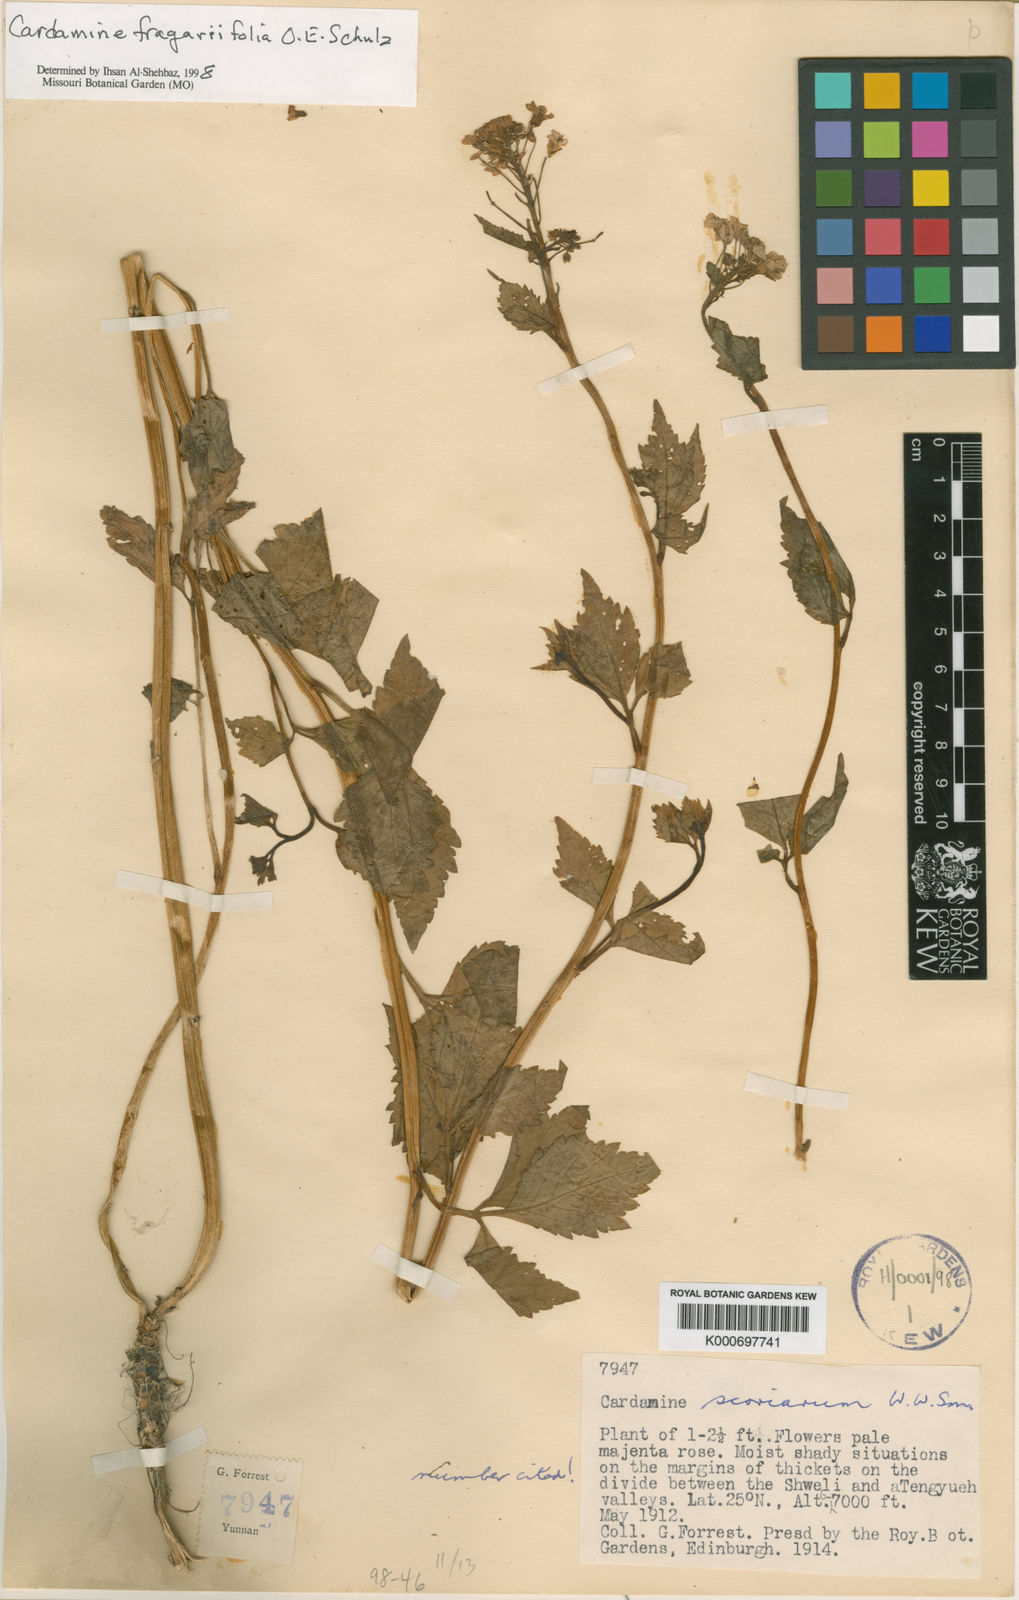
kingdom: Plantae
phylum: Tracheophyta
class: Magnoliopsida
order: Brassicales
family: Brassicaceae
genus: Cardamine
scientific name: Cardamine cheotaiyienii
